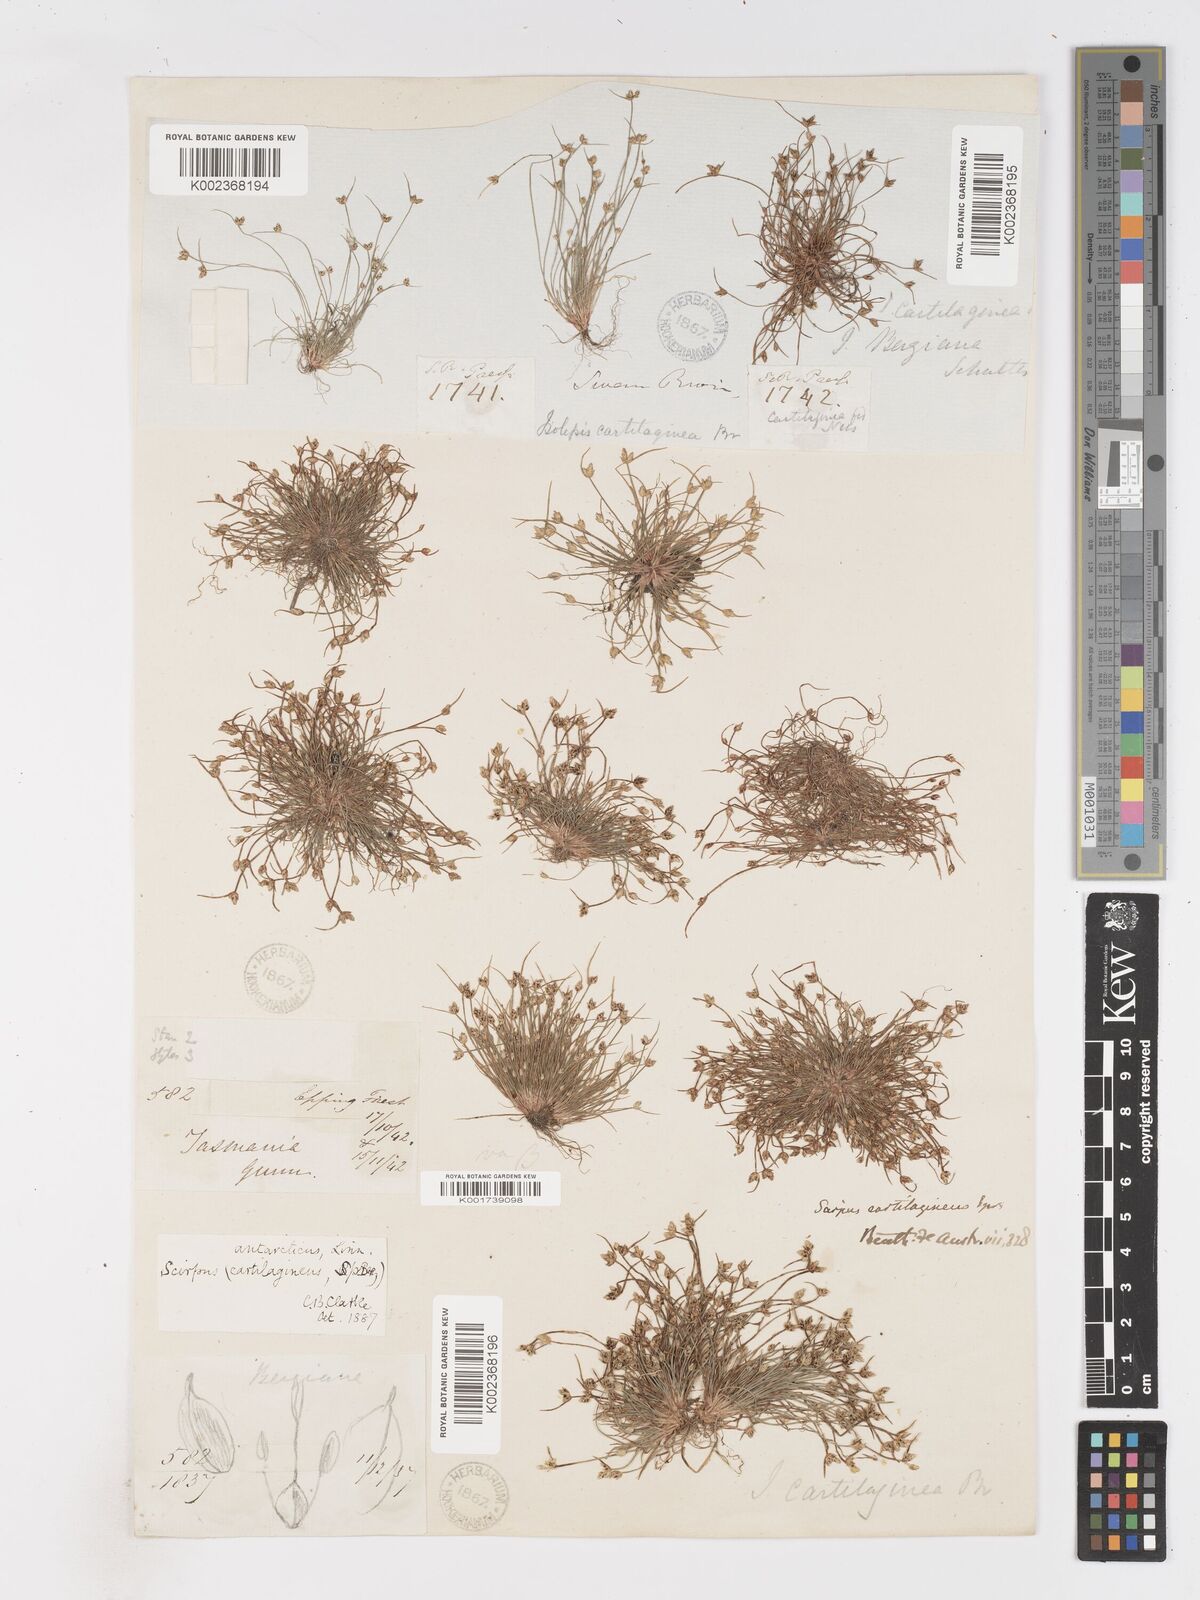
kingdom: Plantae
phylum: Tracheophyta
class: Liliopsida
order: Poales
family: Cyperaceae
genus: Isolepis
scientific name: Isolepis antarctica
